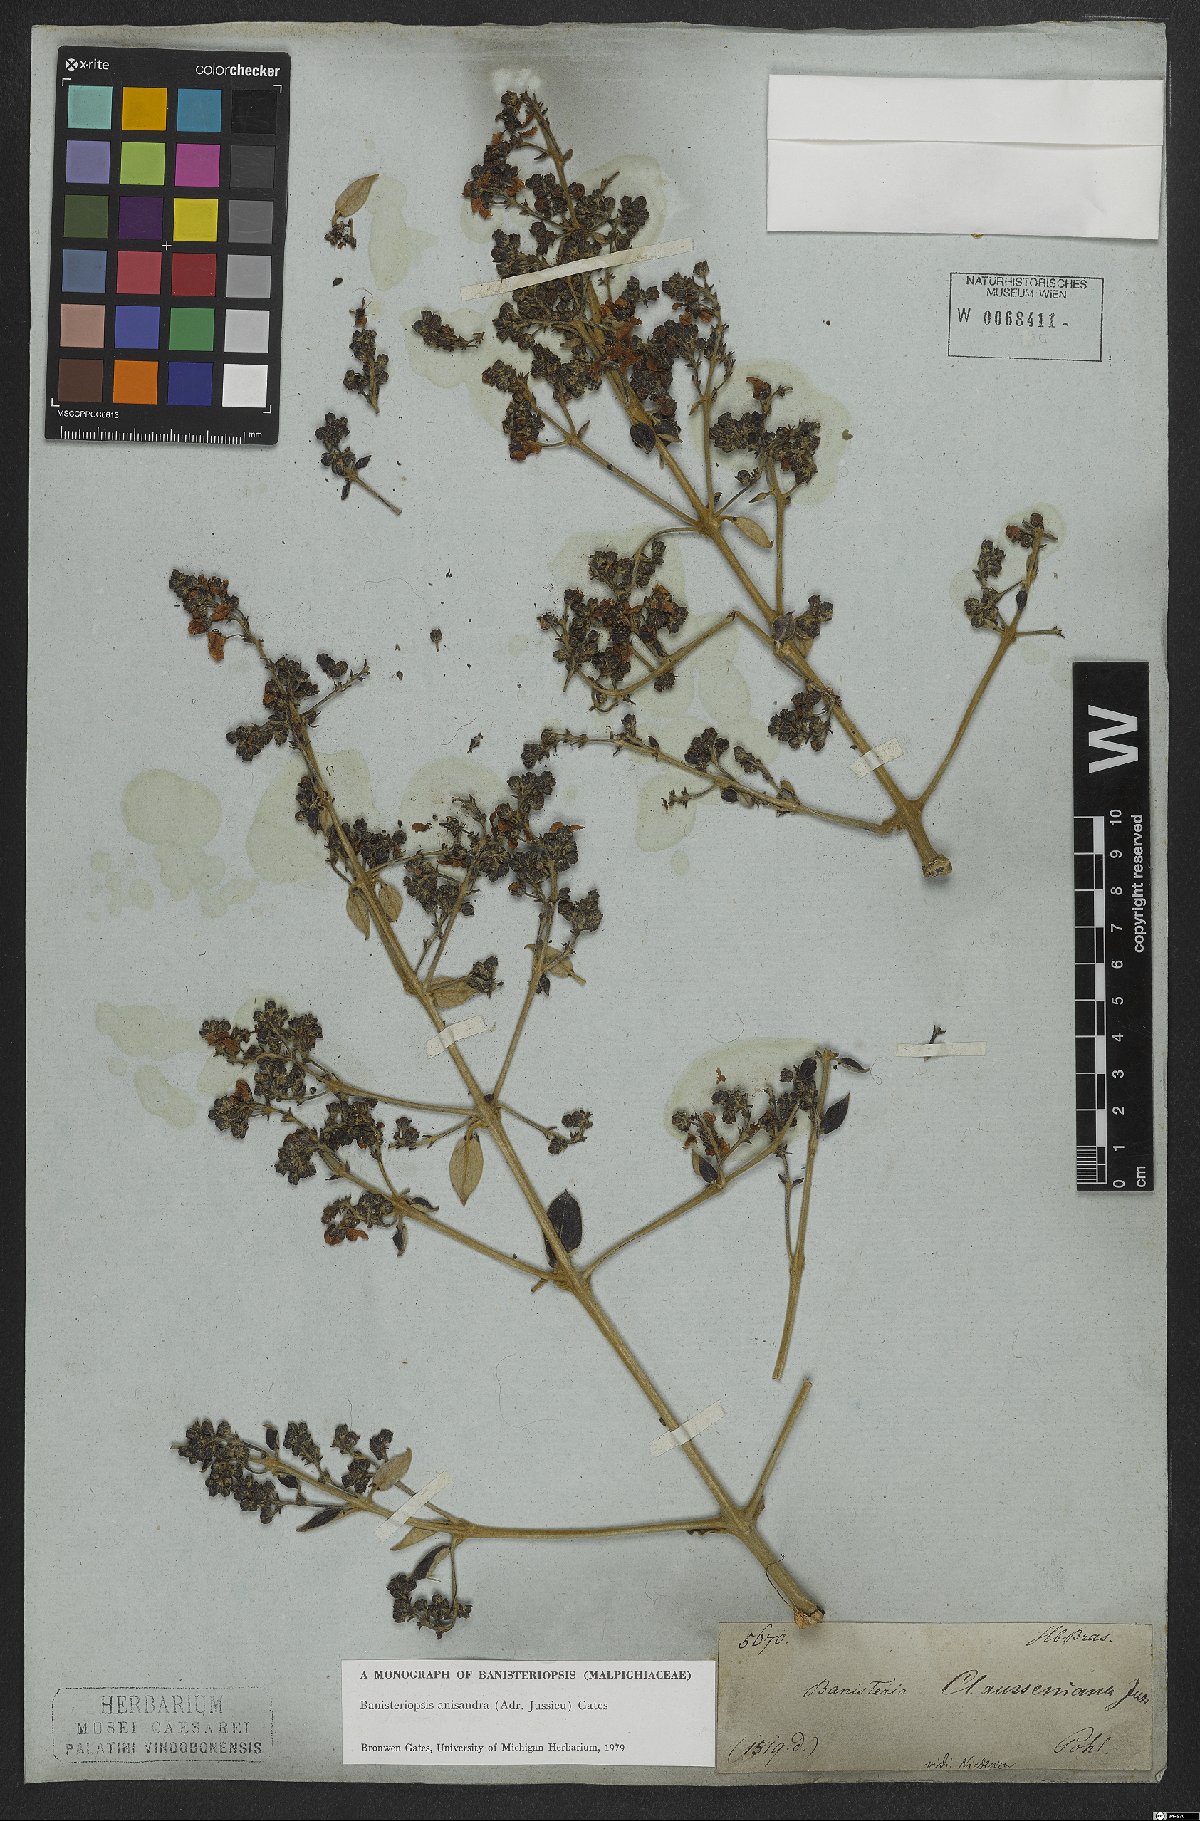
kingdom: Plantae
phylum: Tracheophyta
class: Magnoliopsida
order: Malpighiales
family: Malpighiaceae
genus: Banisteriopsis
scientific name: Banisteriopsis anisandra
